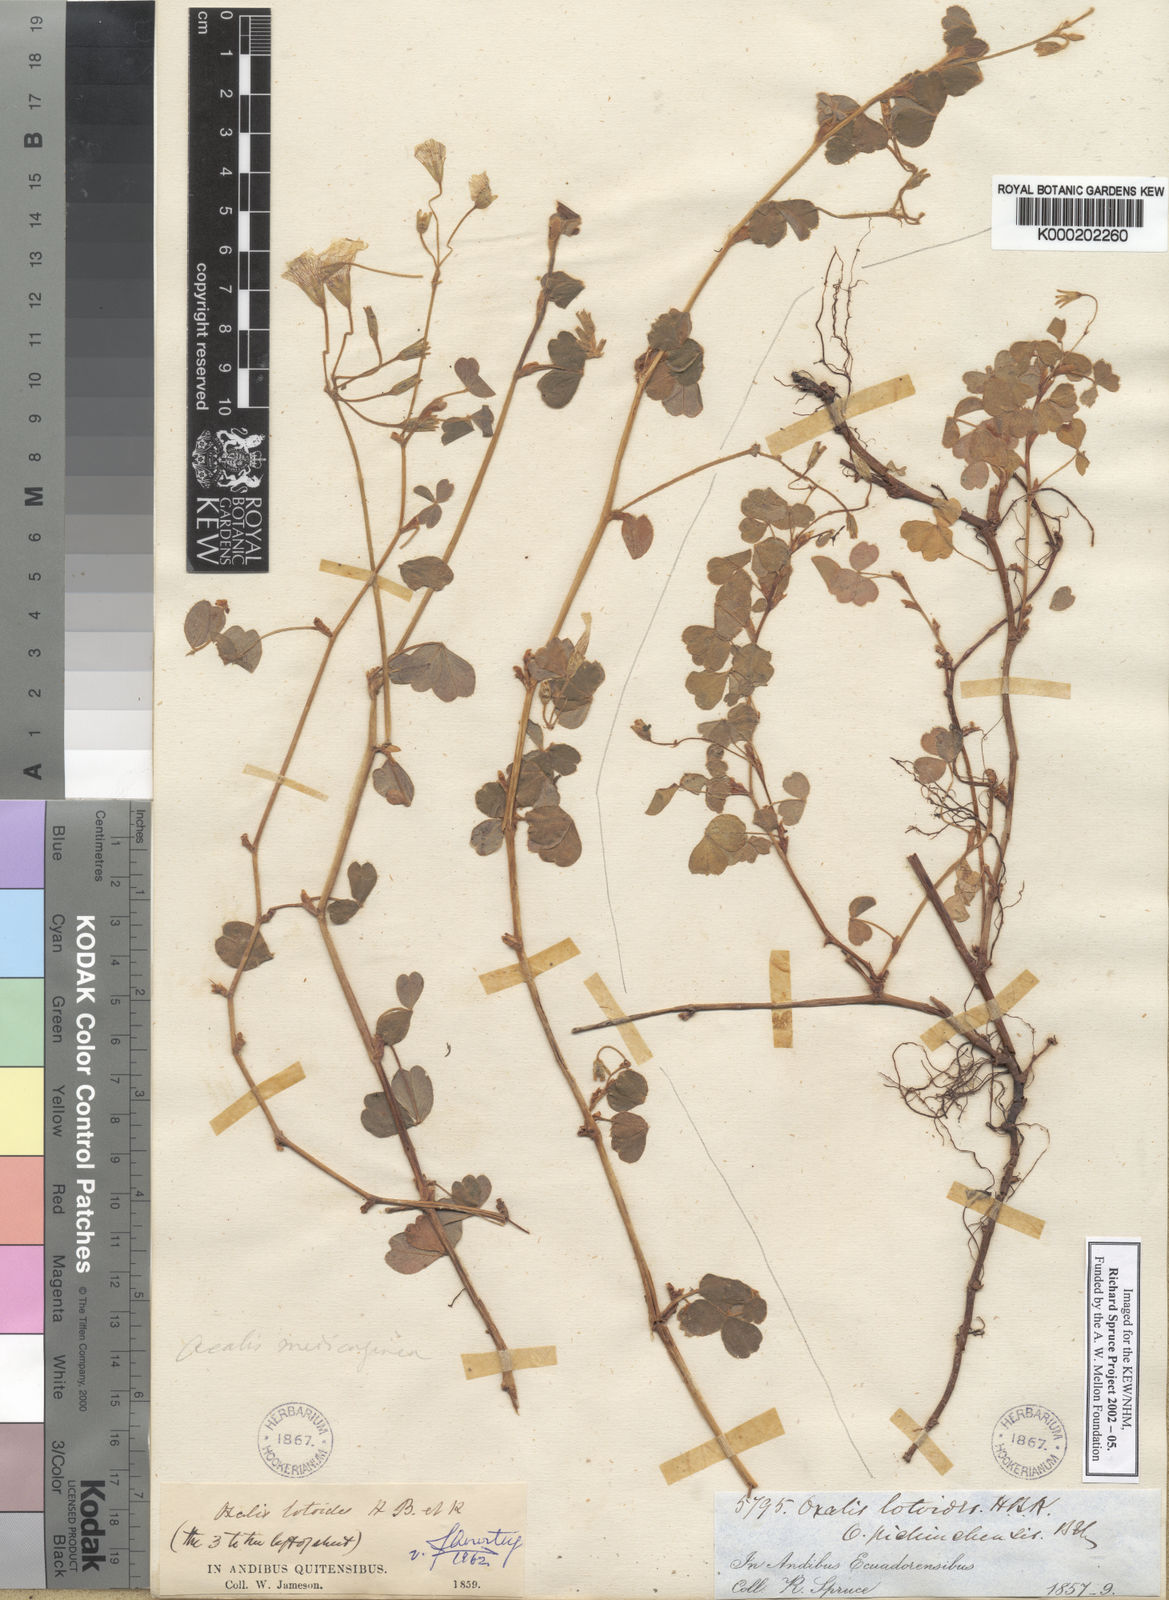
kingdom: Plantae
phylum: Tracheophyta
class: Magnoliopsida
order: Oxalidales
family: Oxalidaceae
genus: Oxalis
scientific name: Oxalis lotoides
